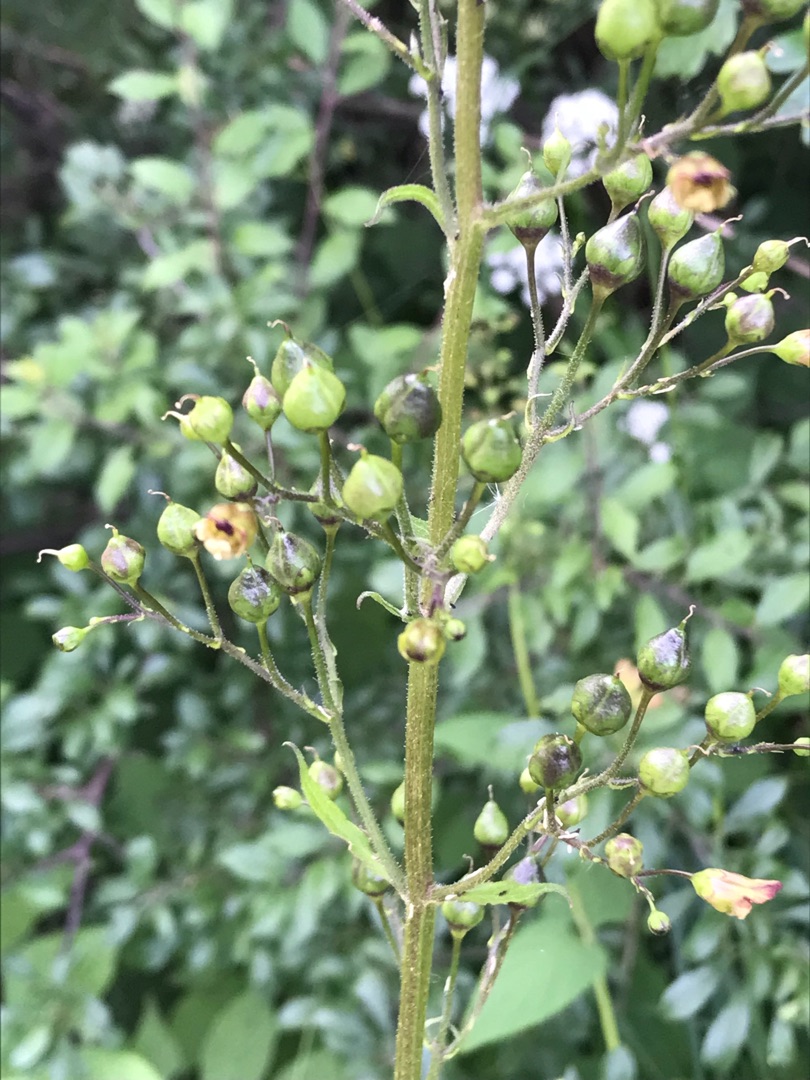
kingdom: Plantae
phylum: Tracheophyta
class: Magnoliopsida
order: Lamiales
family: Scrophulariaceae
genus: Scrophularia
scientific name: Scrophularia nodosa
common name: Knoldet brunrod
